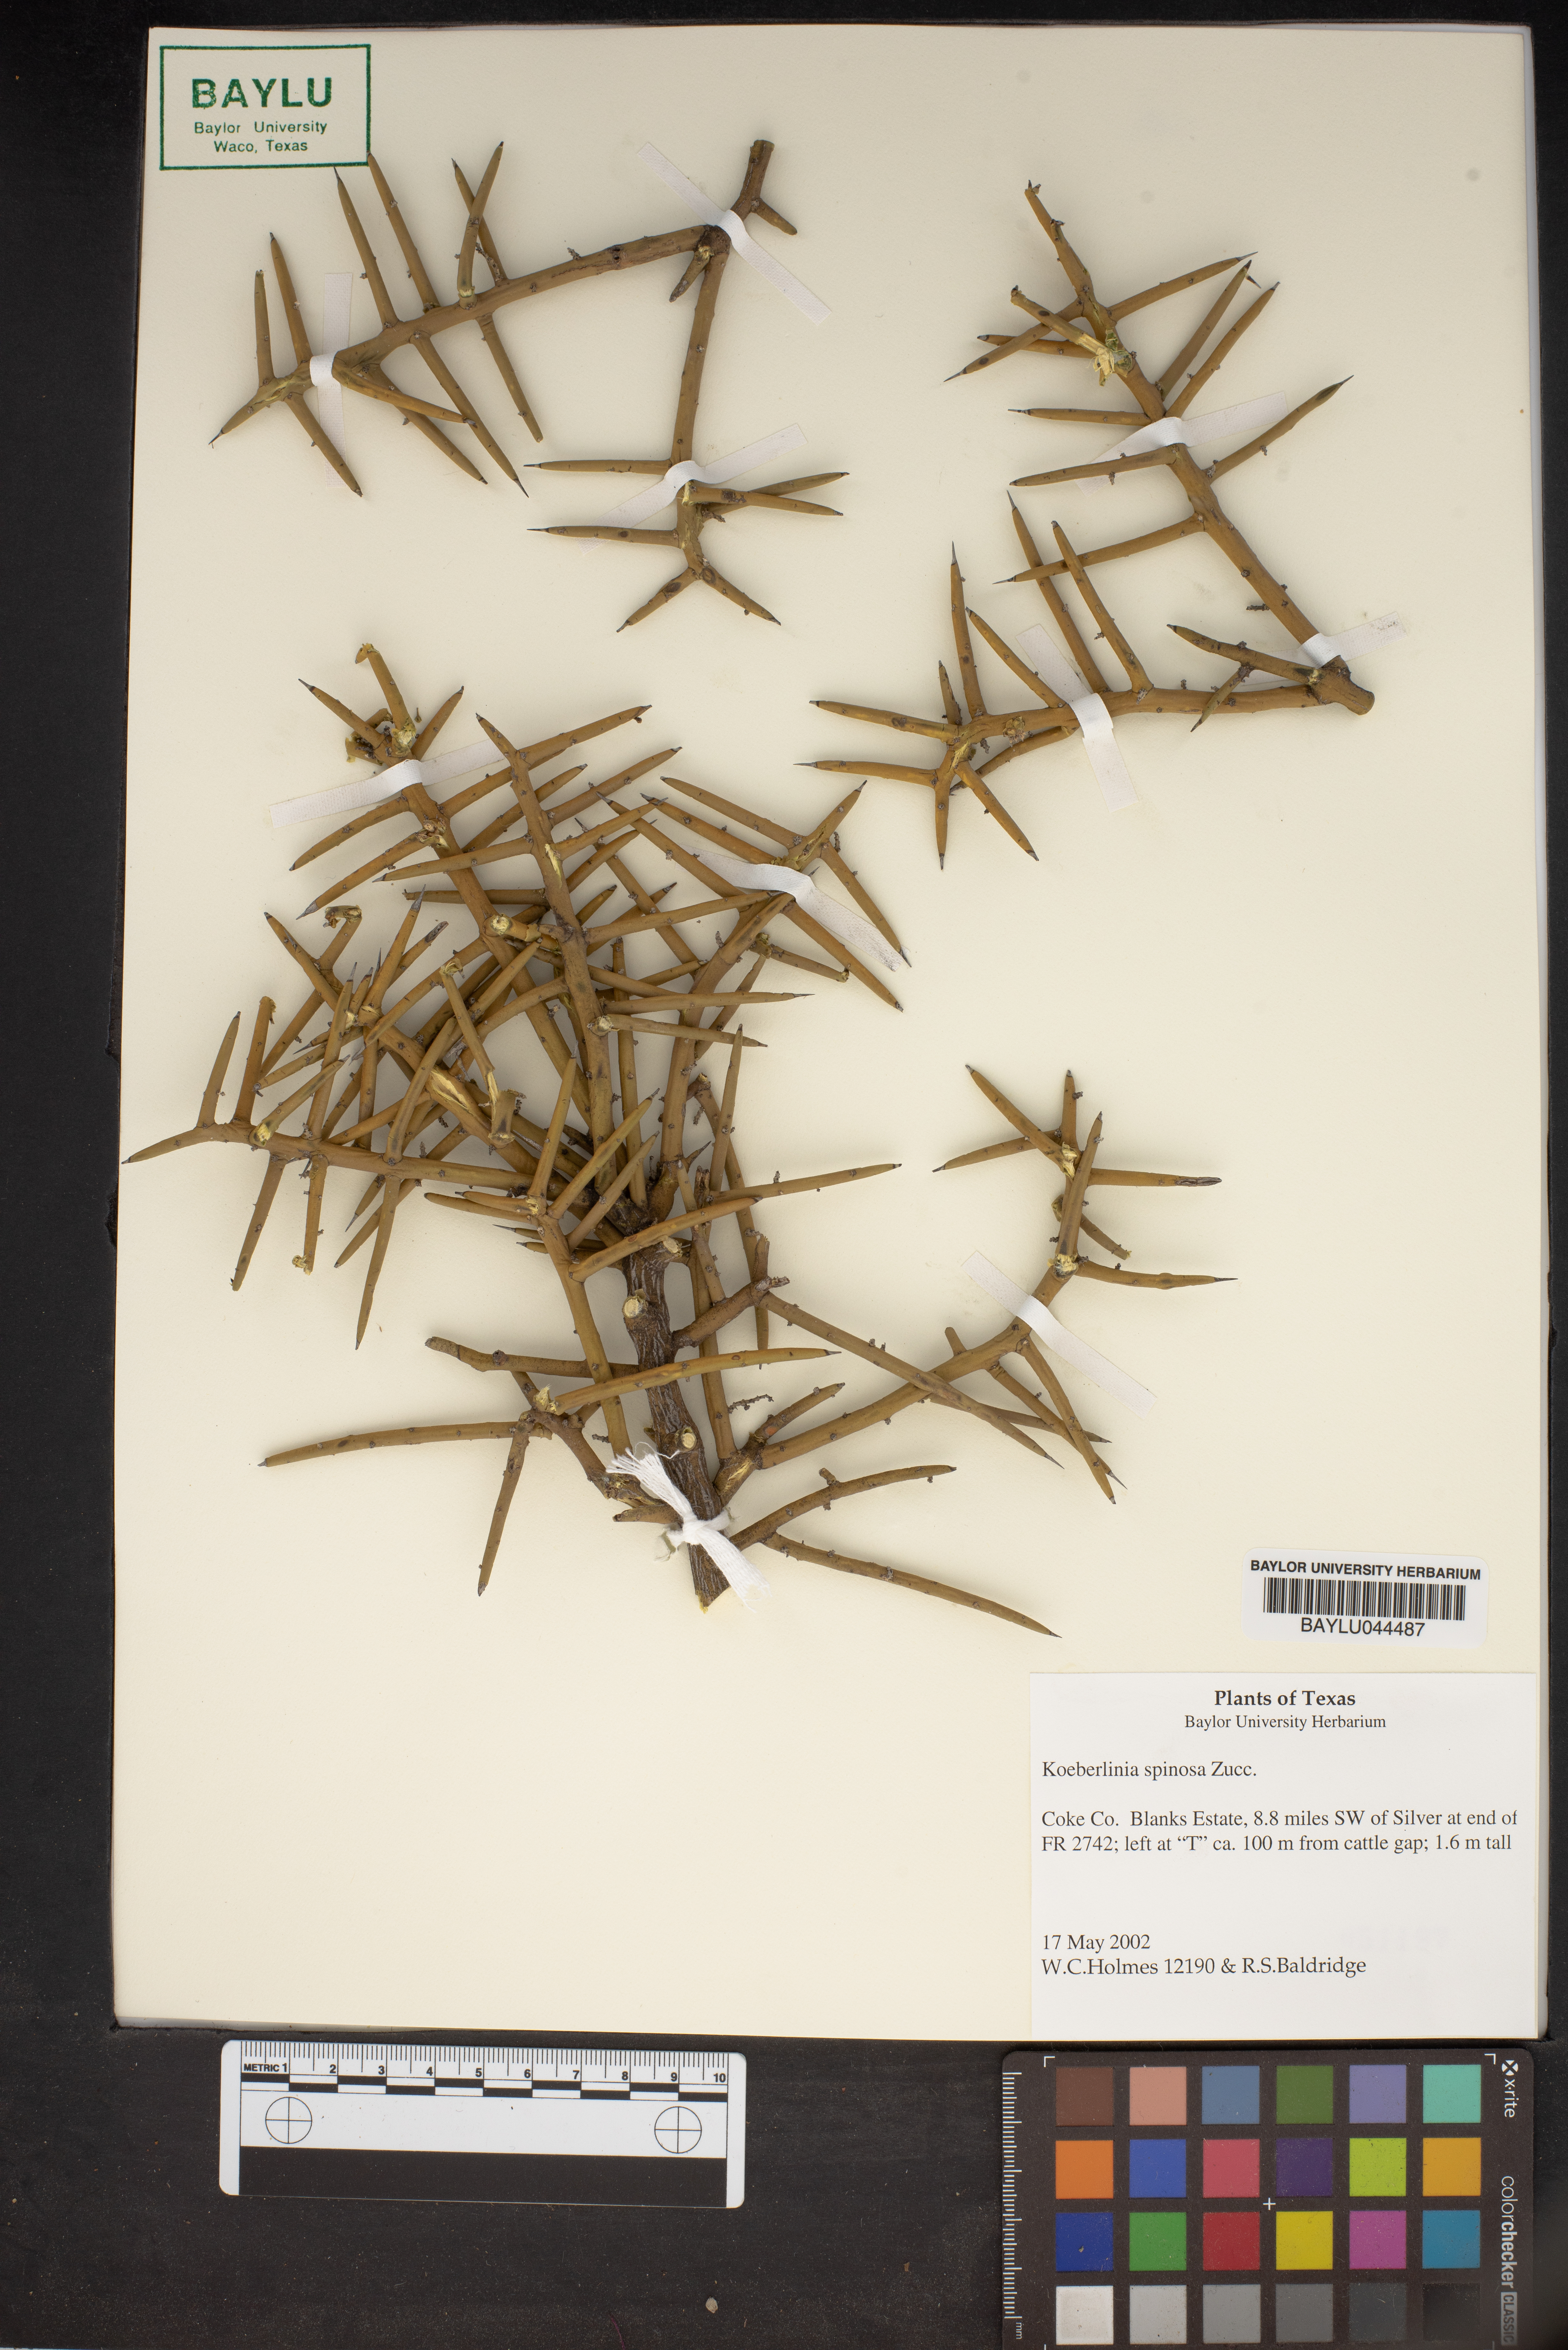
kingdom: Plantae
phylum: Tracheophyta
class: Magnoliopsida
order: Brassicales
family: Koeberliniaceae
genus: Koeberlinia
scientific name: Koeberlinia spinosa
